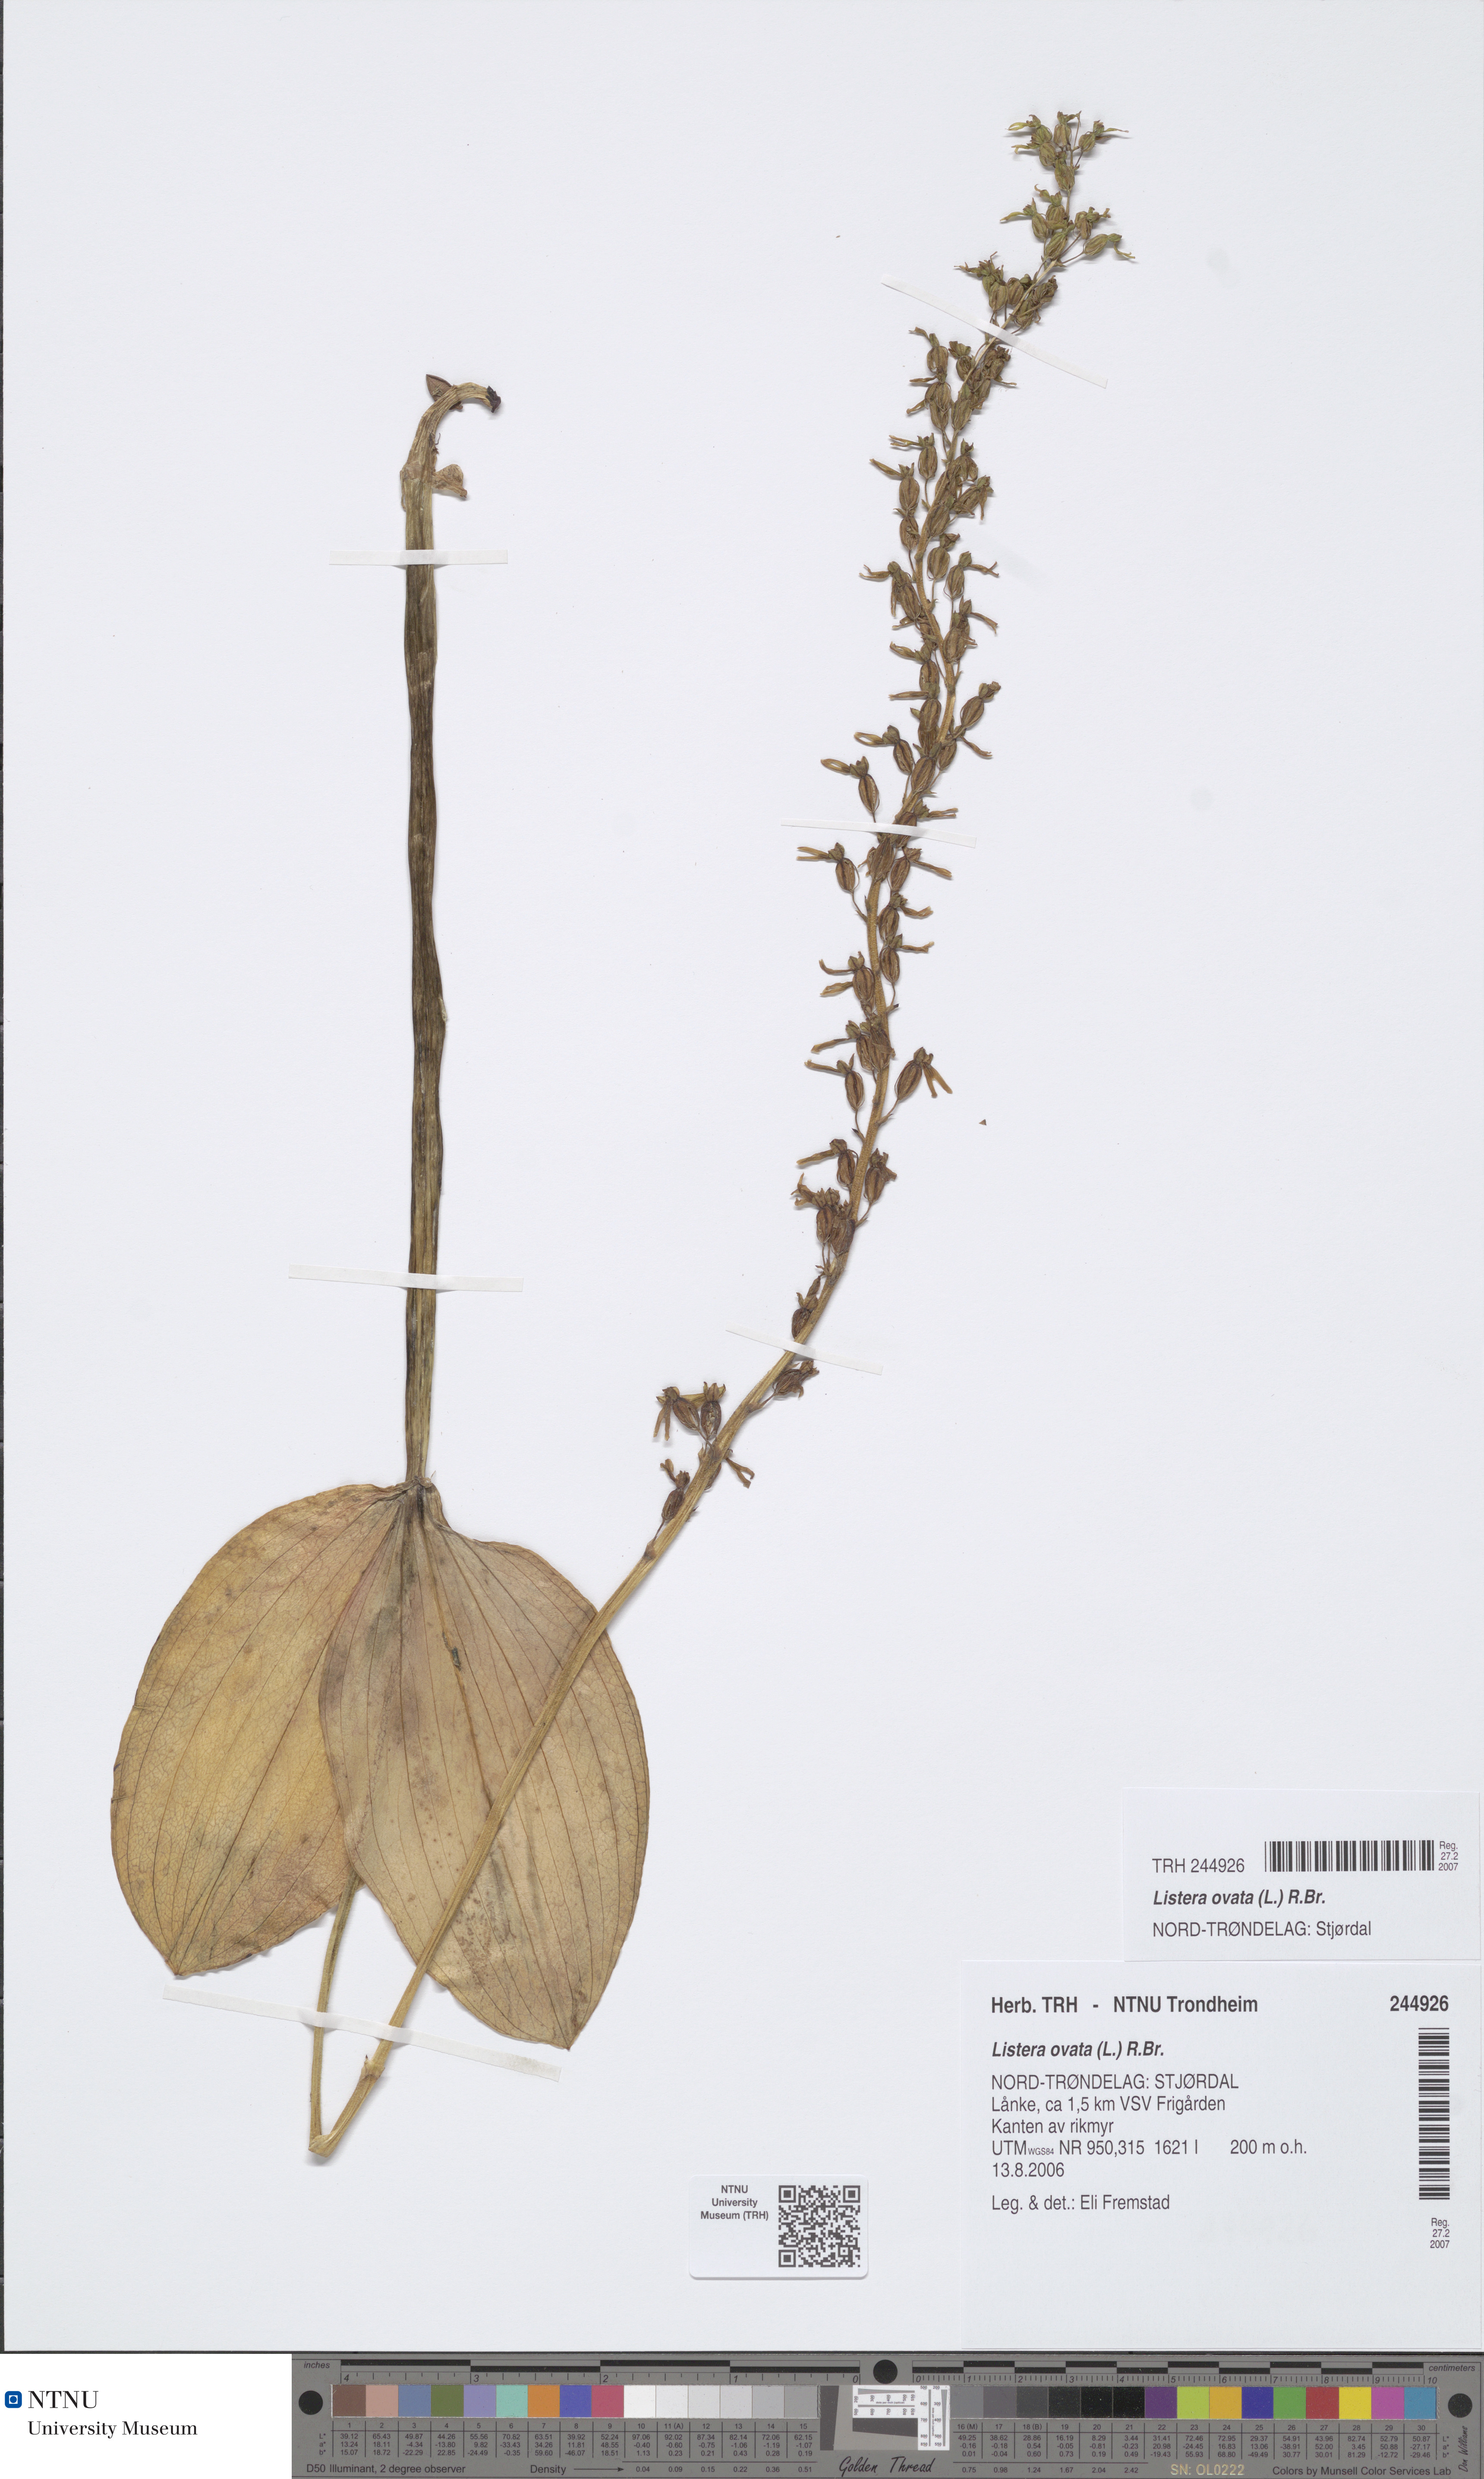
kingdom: Plantae
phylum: Tracheophyta
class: Liliopsida
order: Asparagales
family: Orchidaceae
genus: Neottia
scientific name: Neottia ovata
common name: Common twayblade
